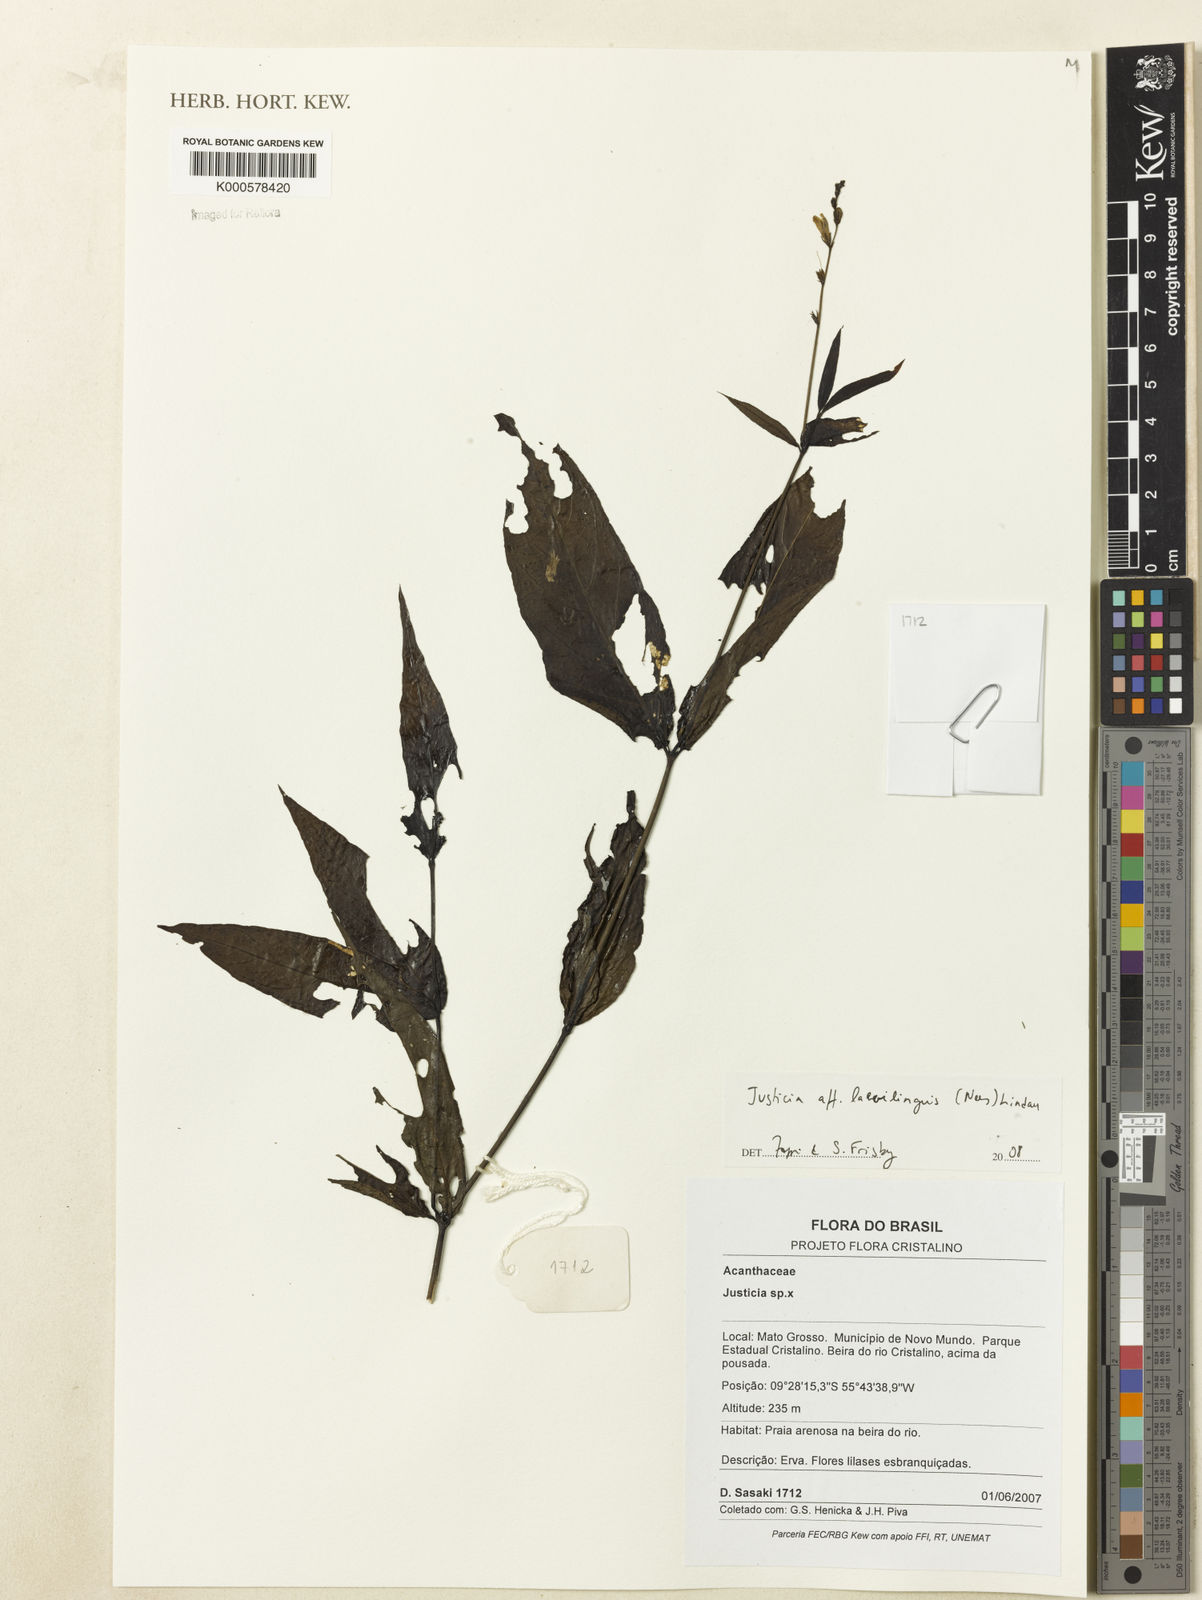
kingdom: Plantae
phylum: Tracheophyta
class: Magnoliopsida
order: Lamiales
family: Acanthaceae
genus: Dianthera
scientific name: Dianthera laevilinguis
